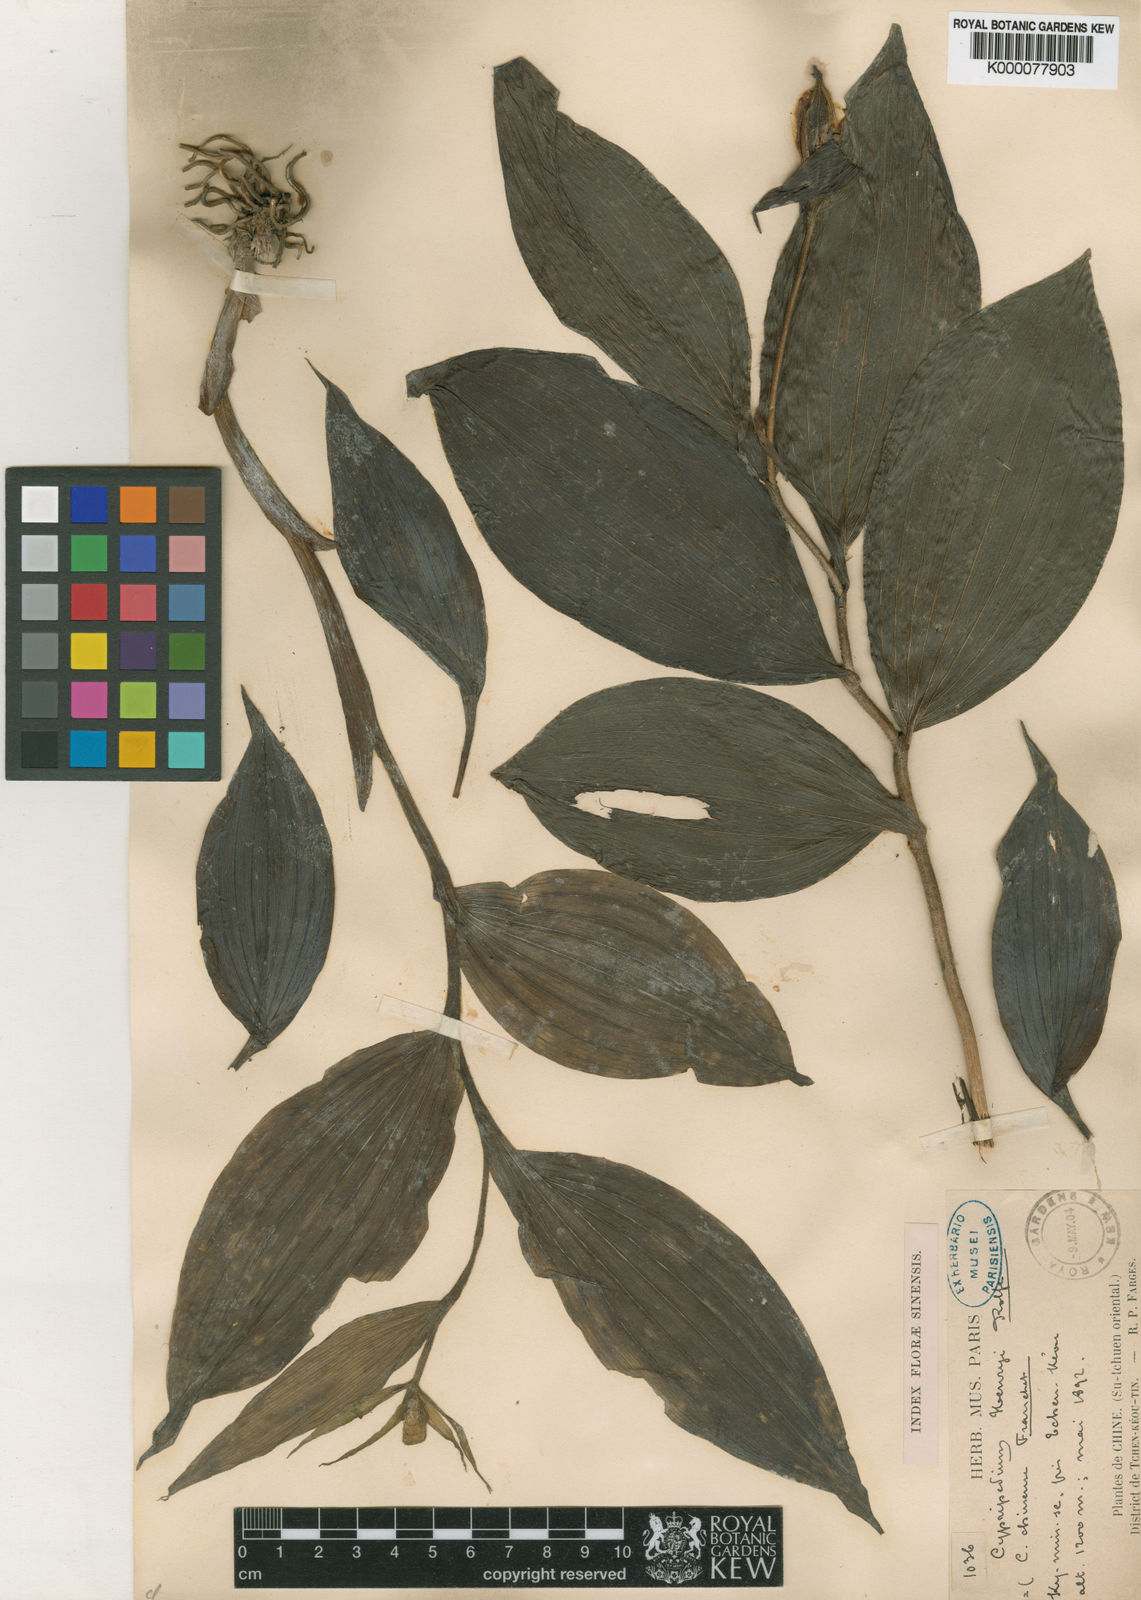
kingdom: Plantae
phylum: Tracheophyta
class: Liliopsida
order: Asparagales
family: Orchidaceae
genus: Cypripedium
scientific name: Cypripedium henryi
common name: Henry's cypripedium
